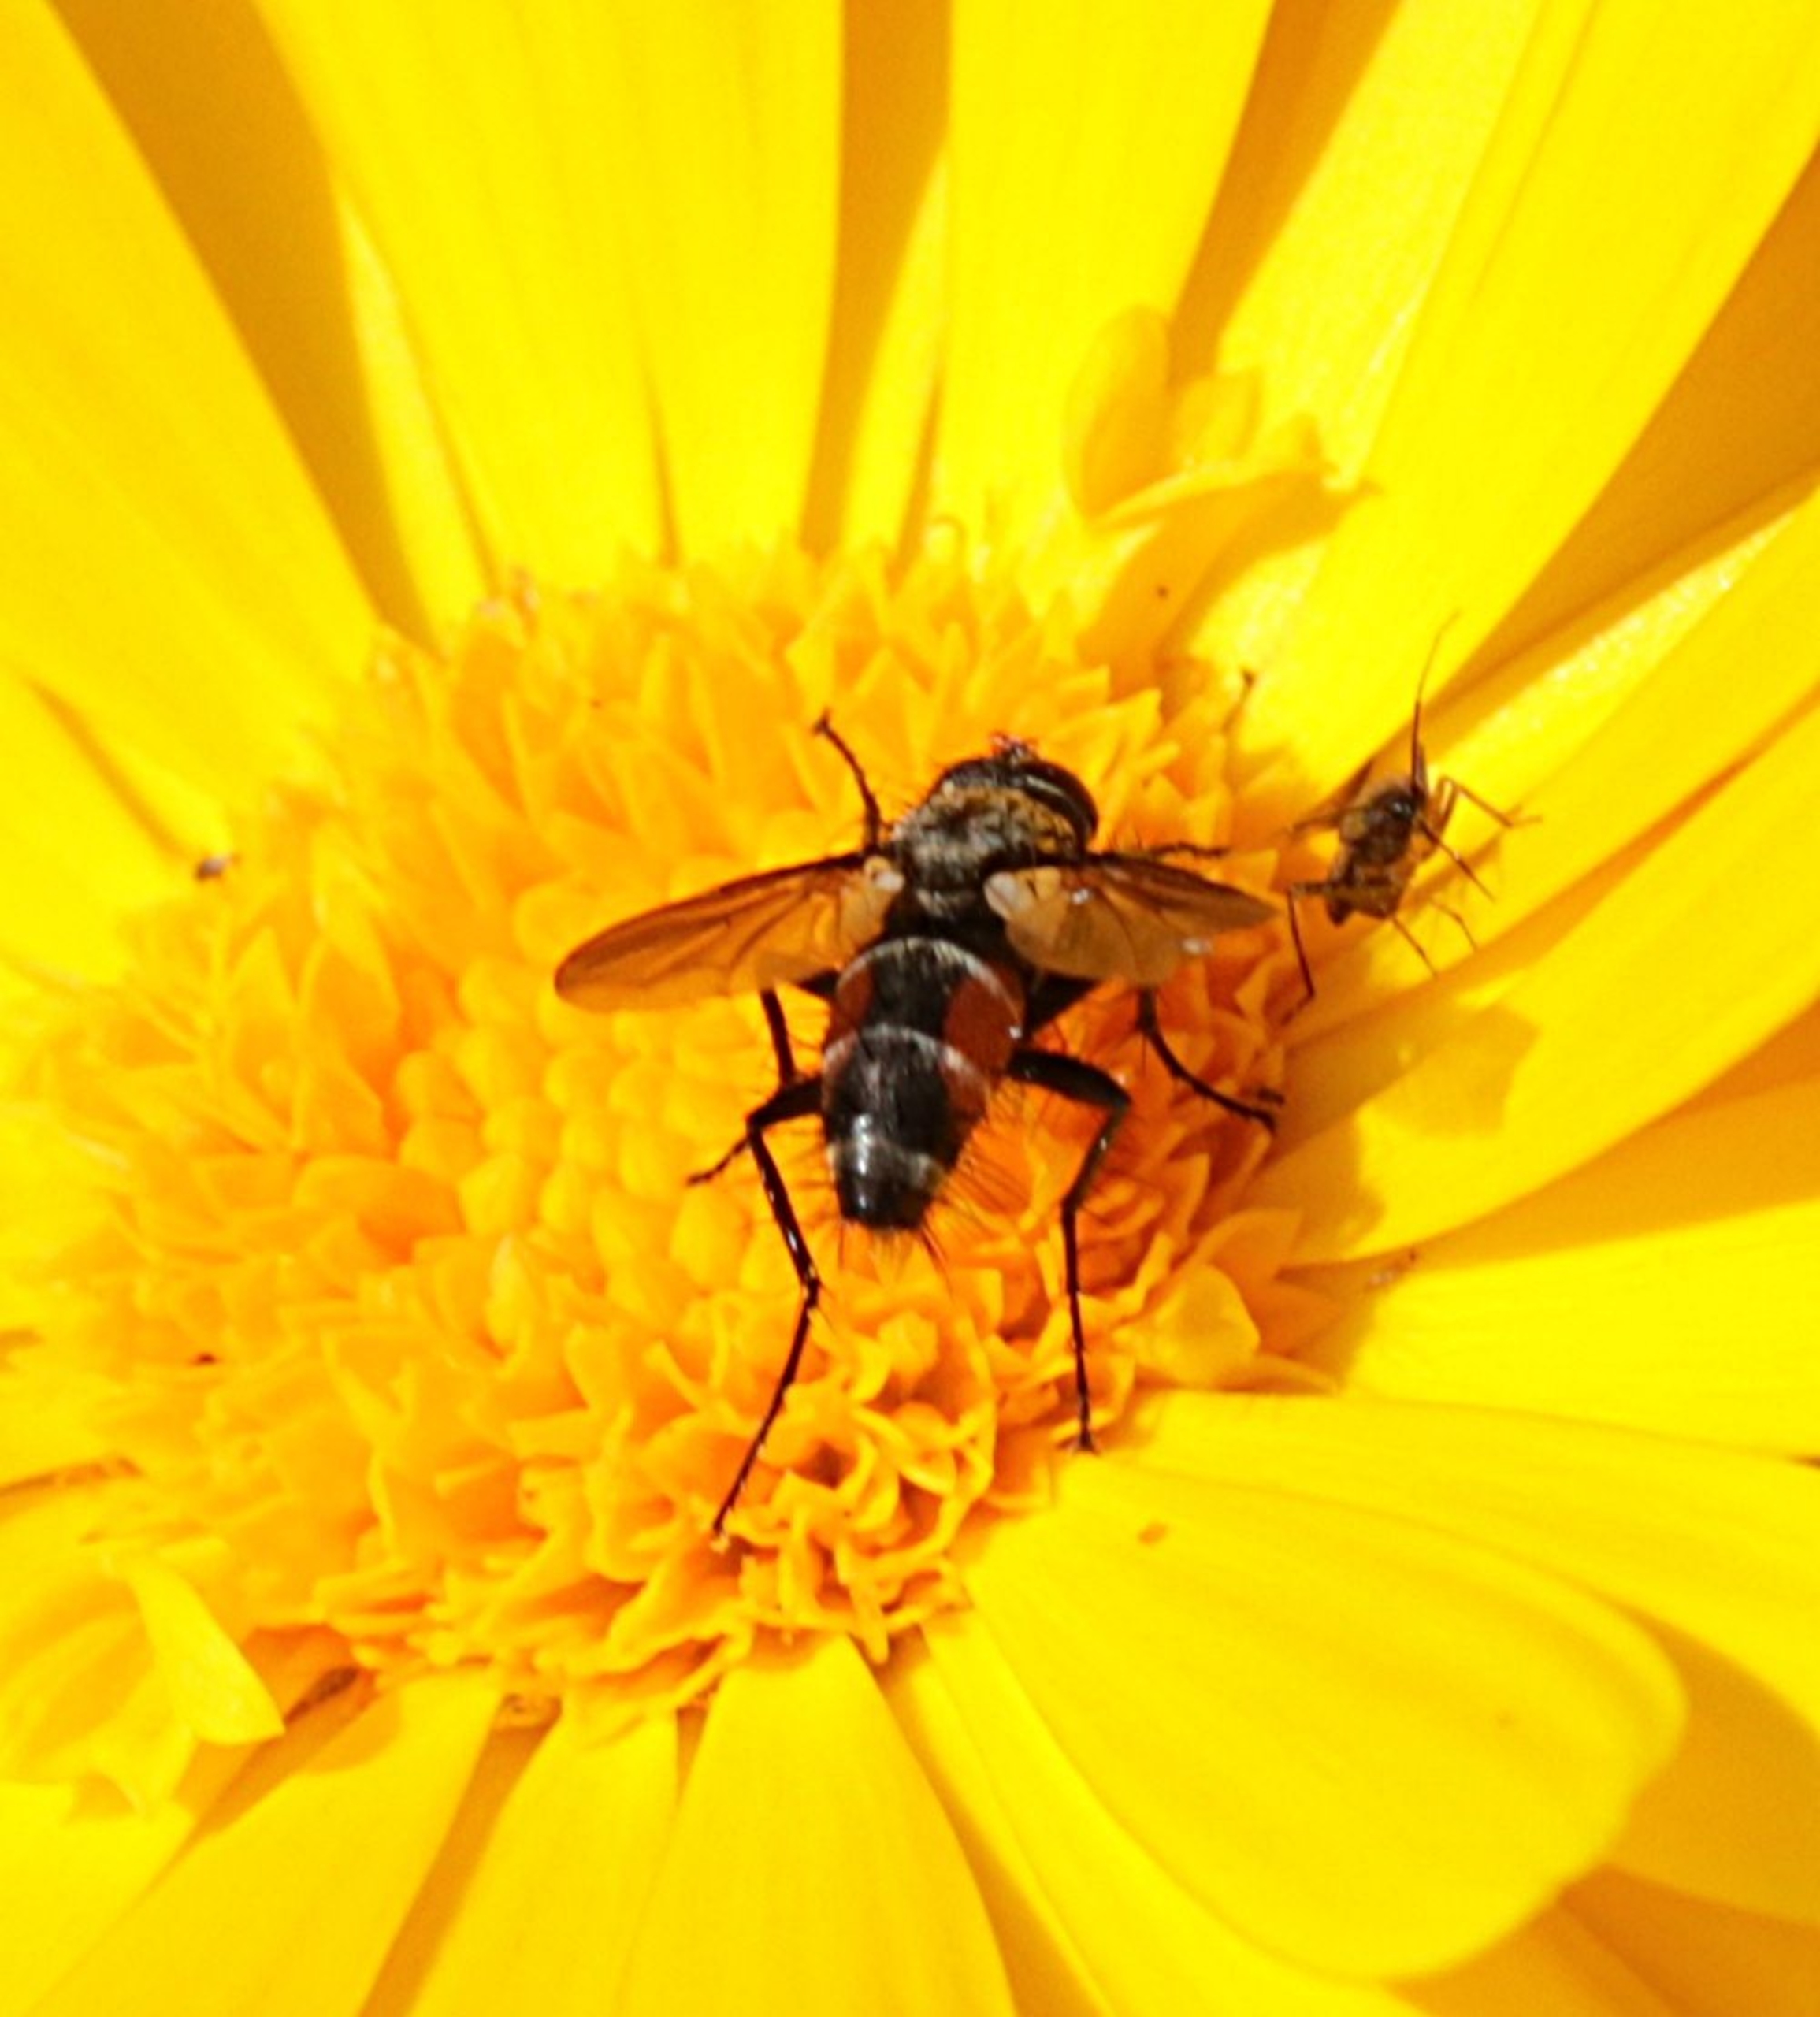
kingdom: Animalia
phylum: Arthropoda
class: Insecta
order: Diptera
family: Tachinidae
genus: Eriothrix
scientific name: Eriothrix rufomaculatus
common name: Rød snylteflue
